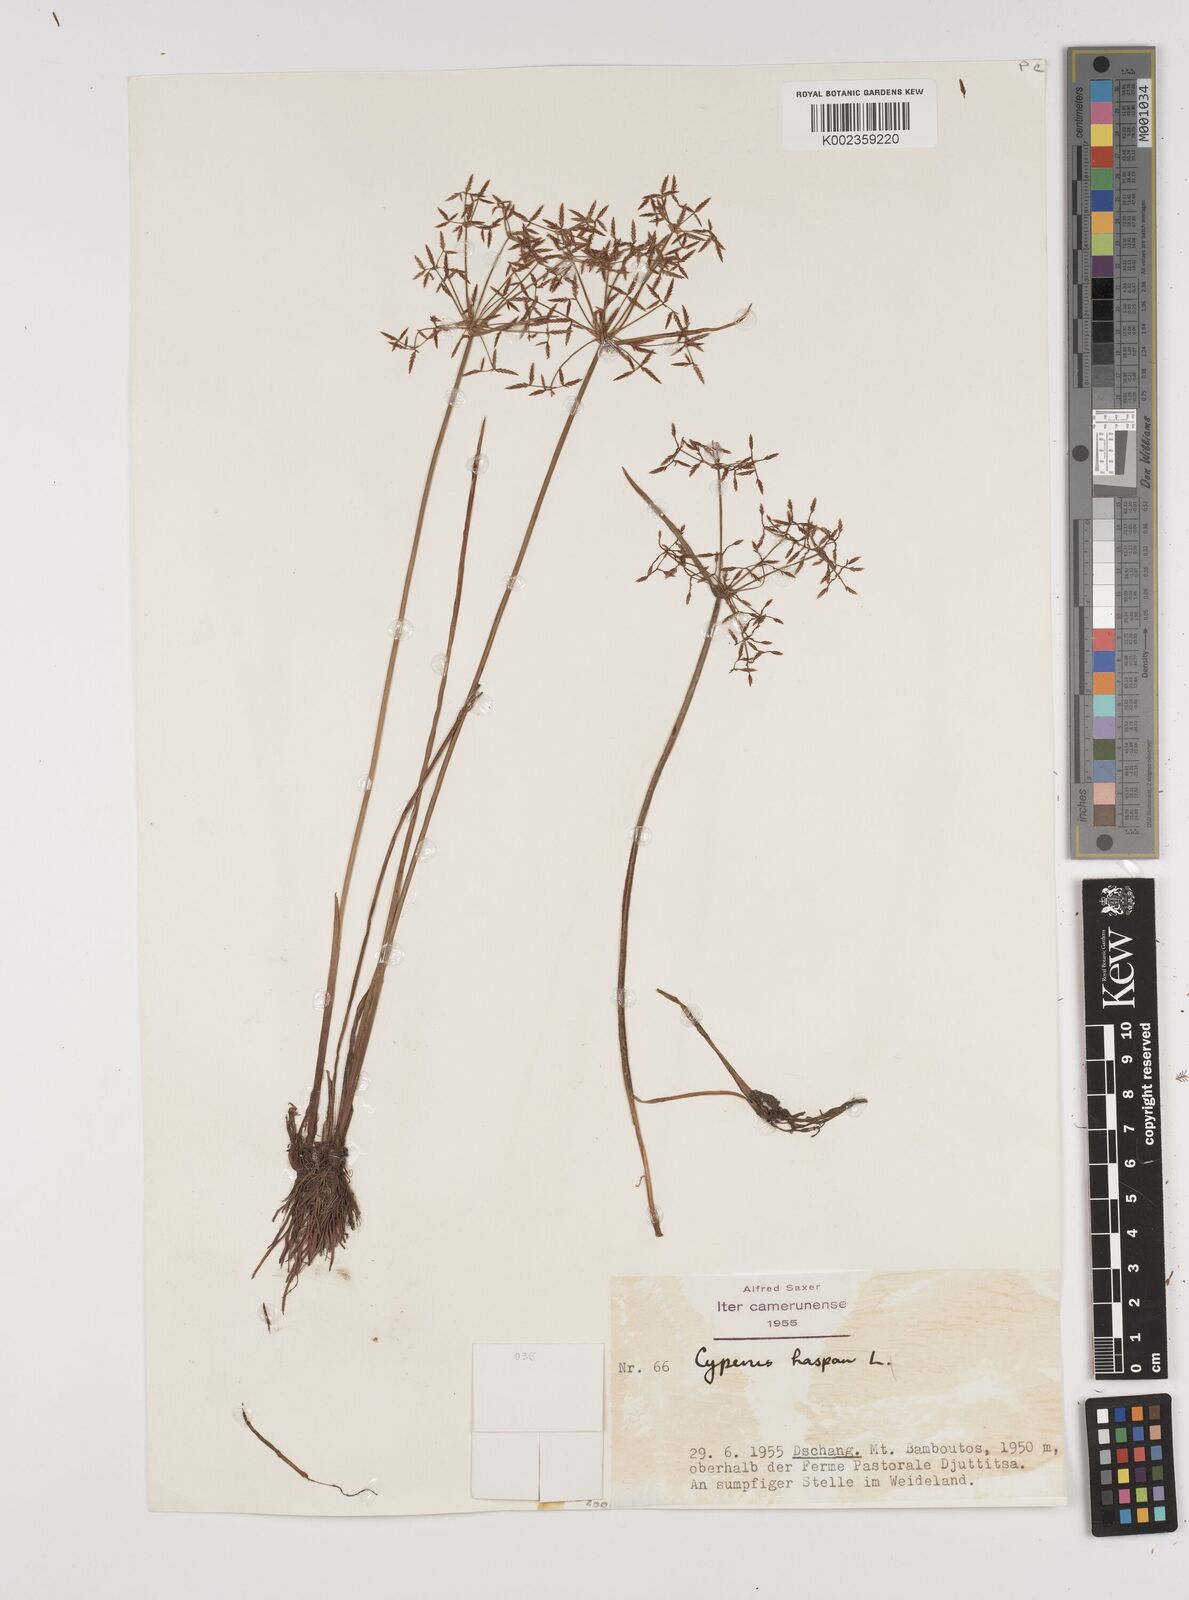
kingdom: Plantae
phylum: Tracheophyta
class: Liliopsida
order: Poales
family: Cyperaceae
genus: Cyperus
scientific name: Cyperus haspan
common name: Haspan flatsedge
